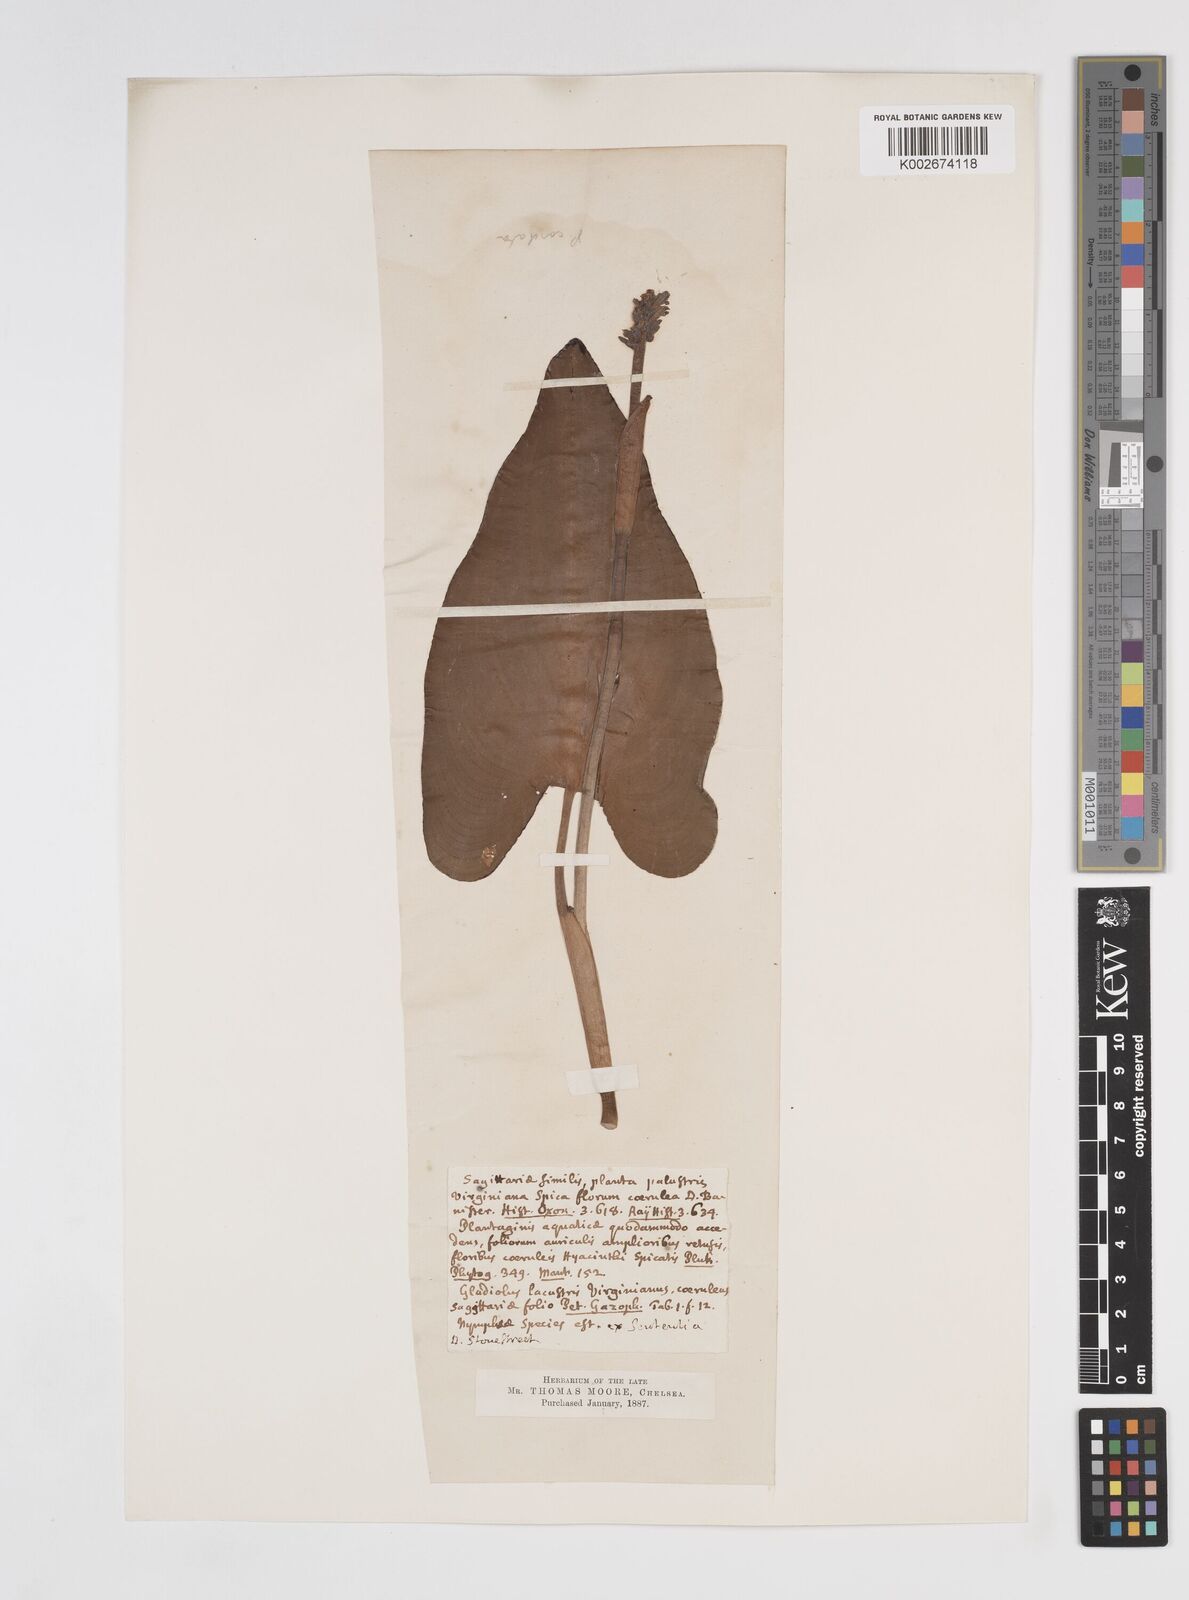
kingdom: Plantae
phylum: Tracheophyta
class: Liliopsida
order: Commelinales
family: Pontederiaceae
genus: Pontederia
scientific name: Pontederia cordata
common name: Pickerelweed
